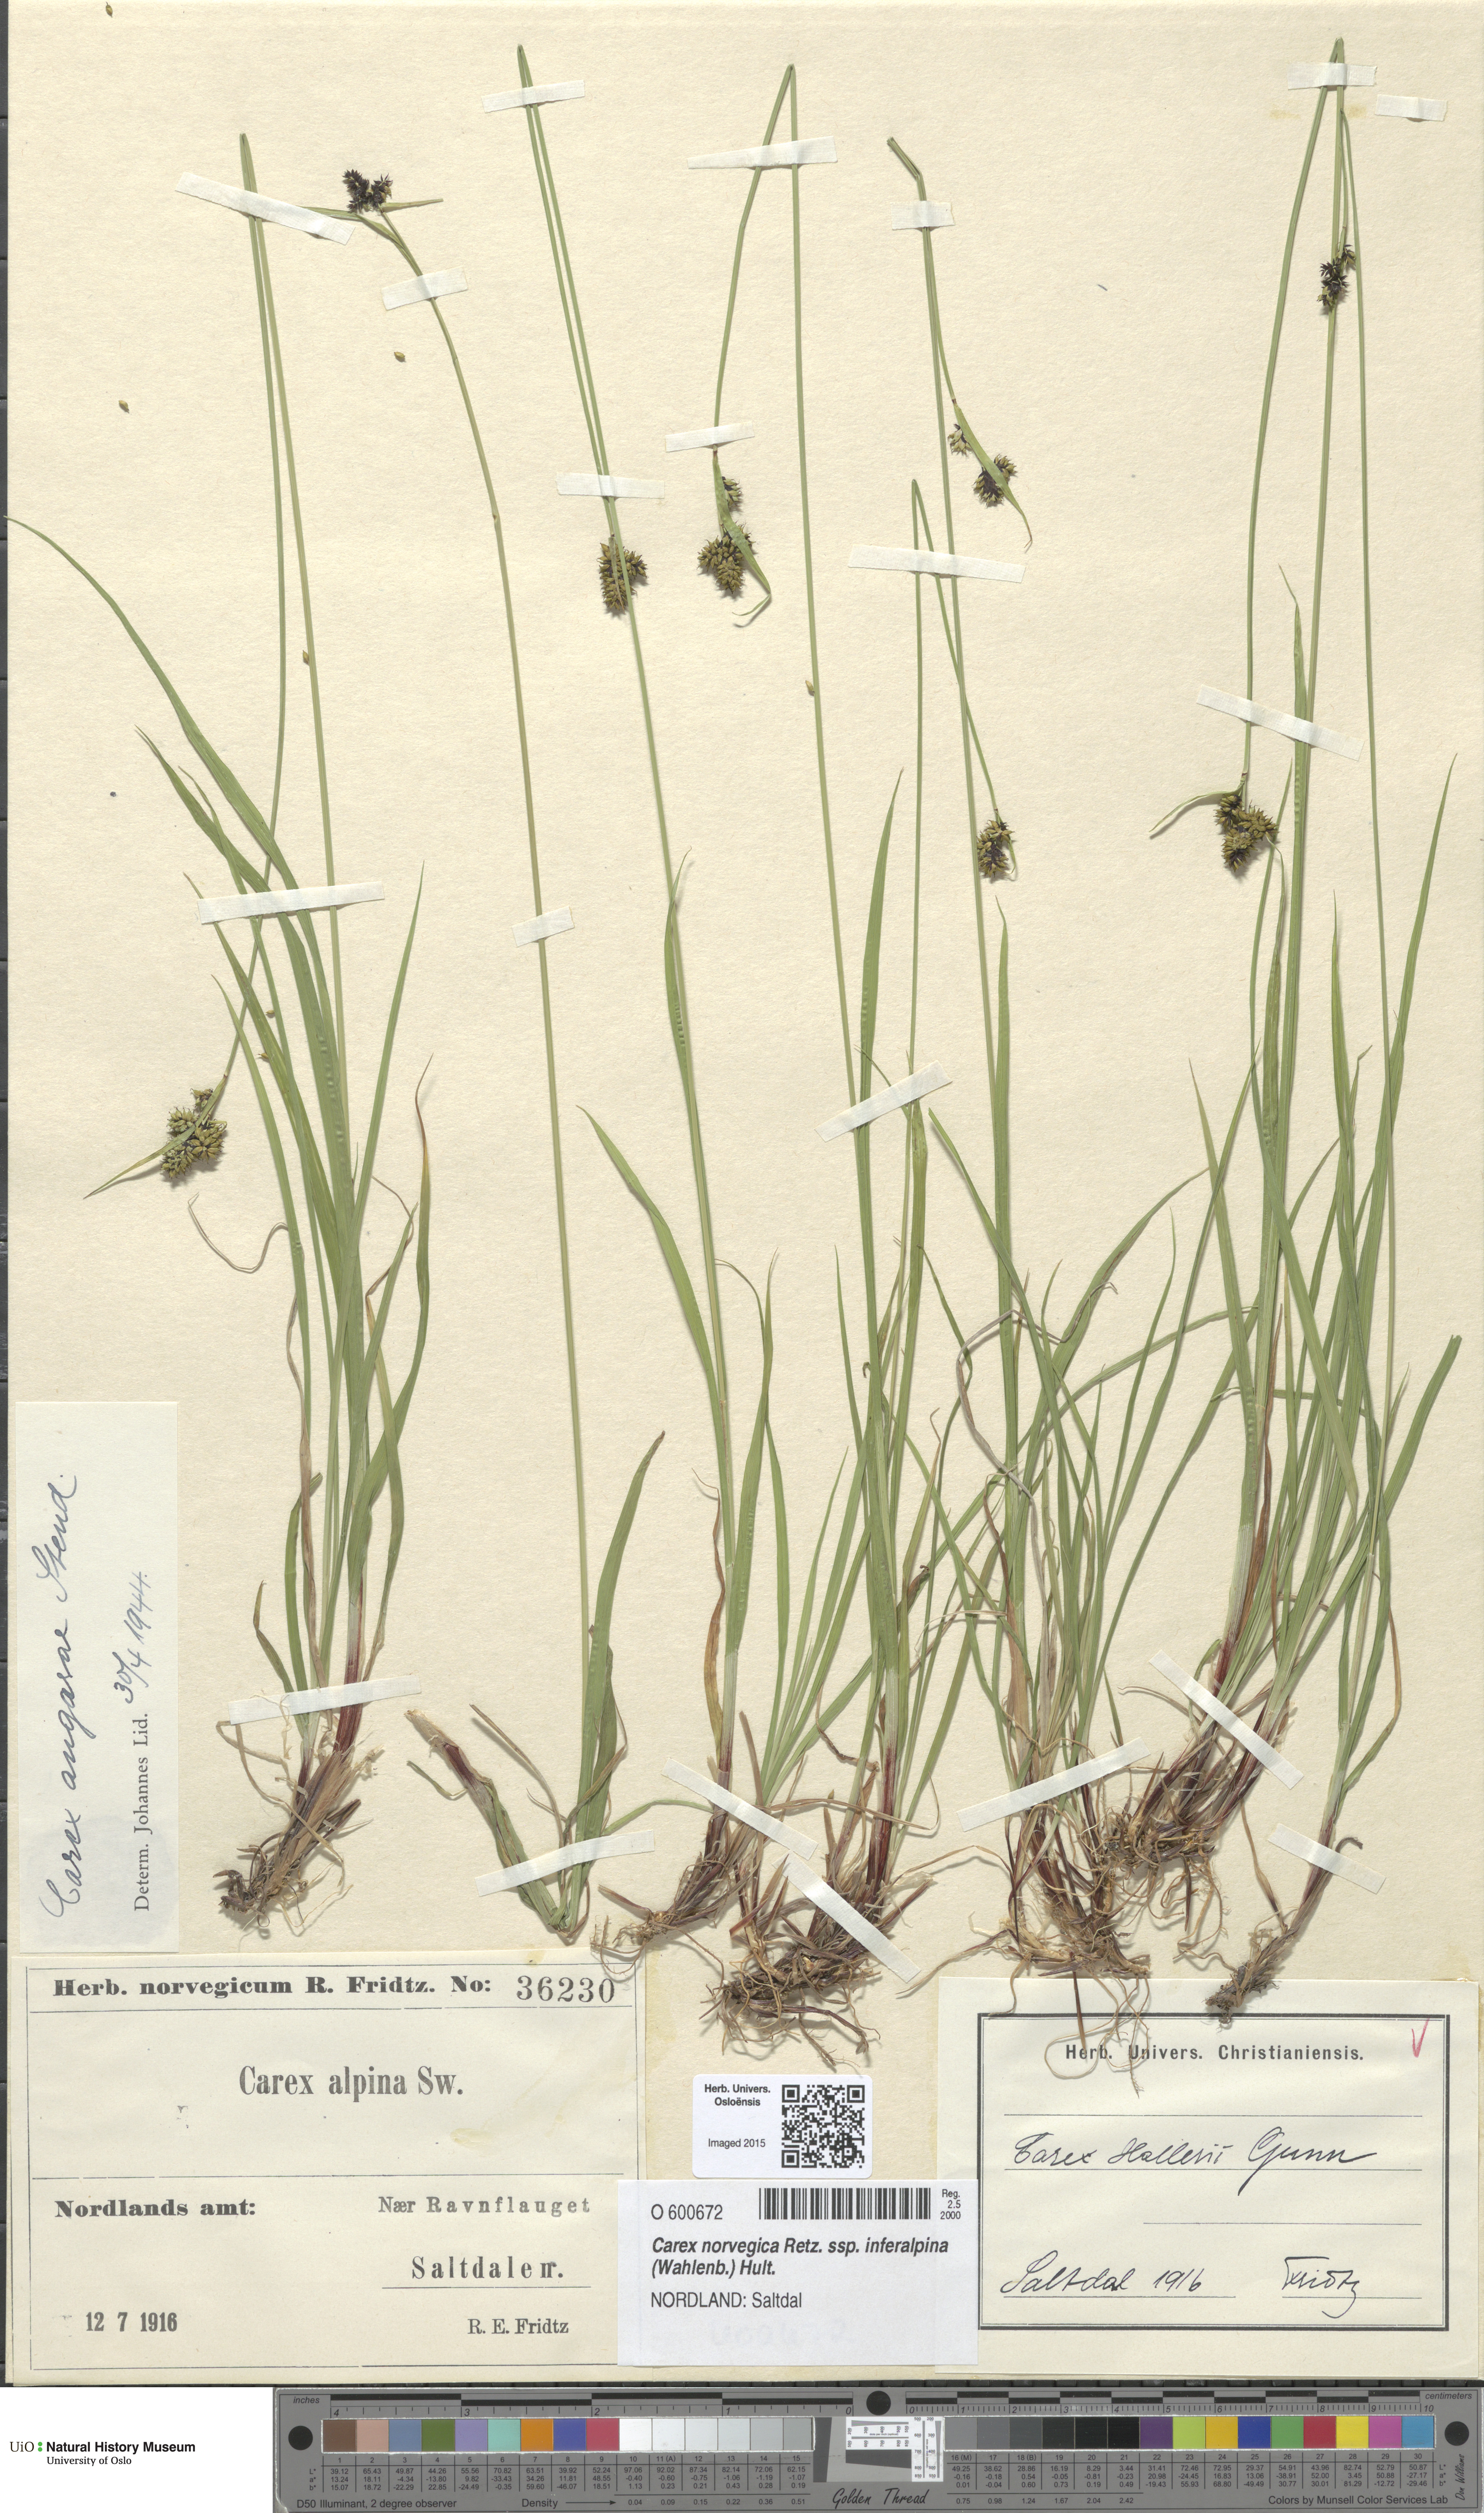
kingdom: Plantae
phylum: Tracheophyta
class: Liliopsida
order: Poales
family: Cyperaceae
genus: Carex
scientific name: Carex media
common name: Alpine sedge
